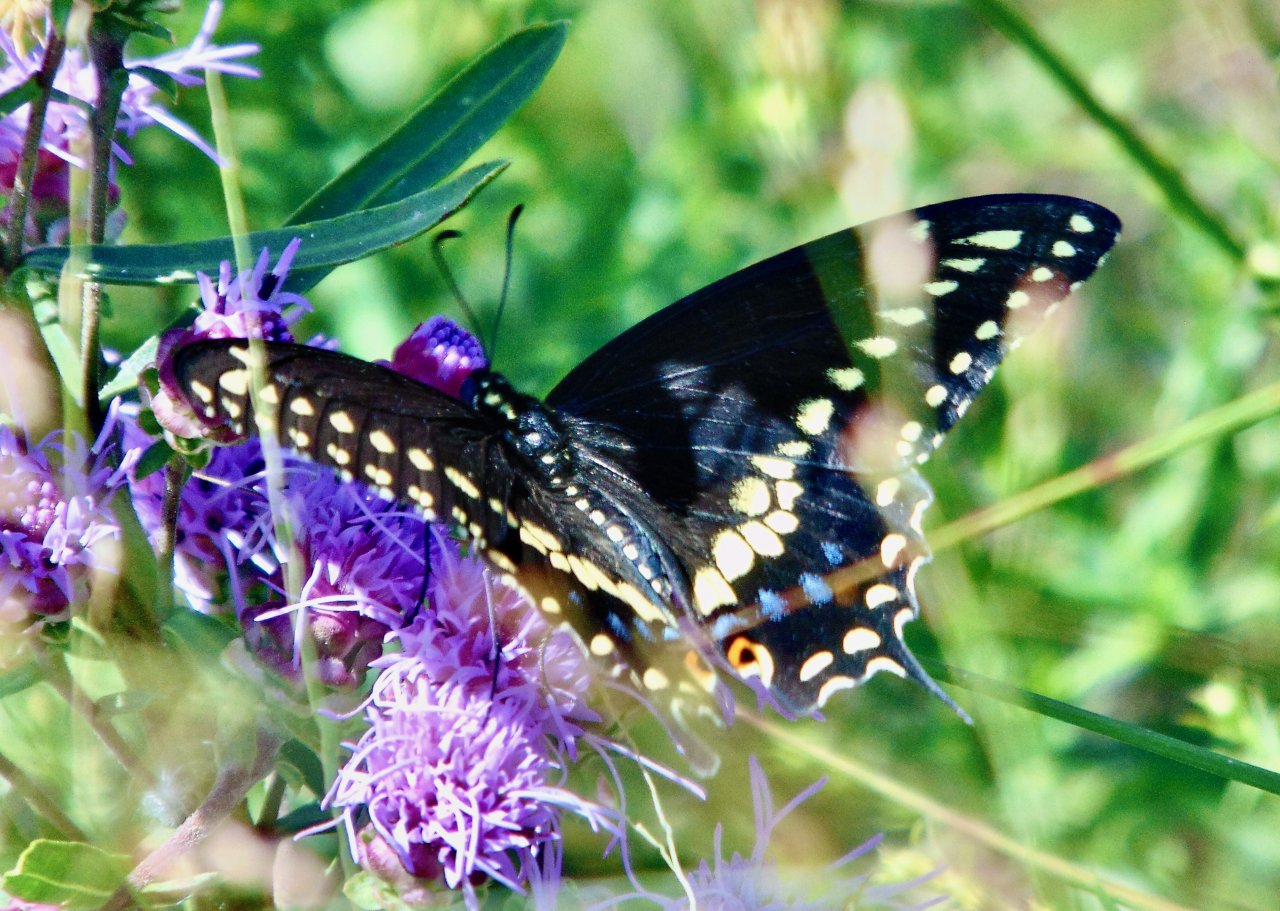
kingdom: Animalia
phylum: Arthropoda
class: Insecta
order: Lepidoptera
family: Papilionidae
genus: Papilio
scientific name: Papilio polyxenes
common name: Black Swallowtail
